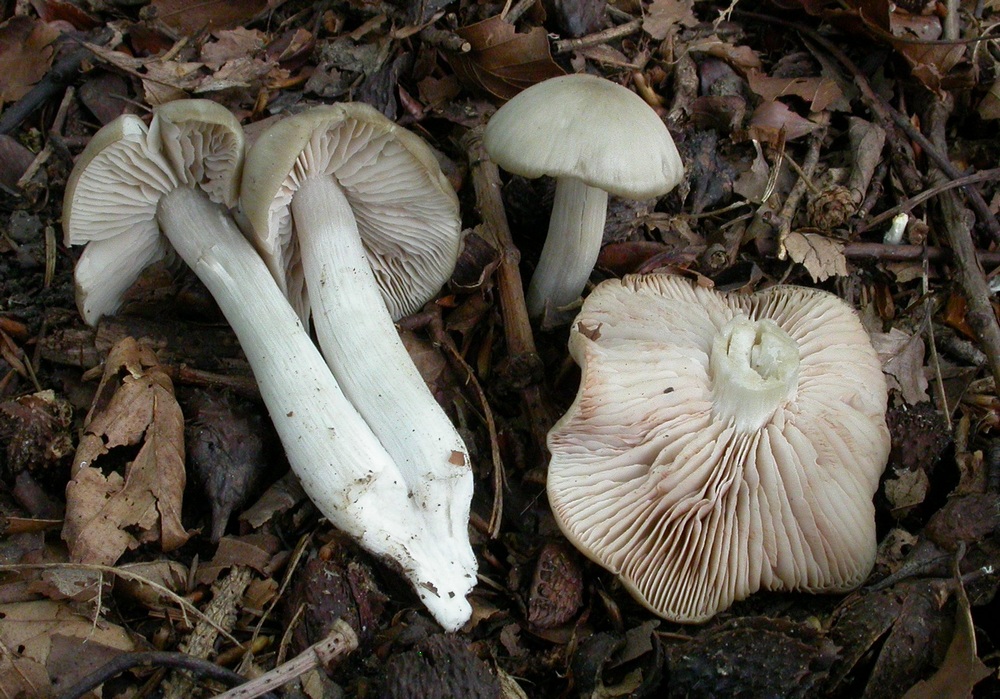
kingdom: Fungi
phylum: Basidiomycota
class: Agaricomycetes
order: Agaricales
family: Entolomataceae
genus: Entoloma
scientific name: Entoloma rhodopolium
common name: skov-rødblad
